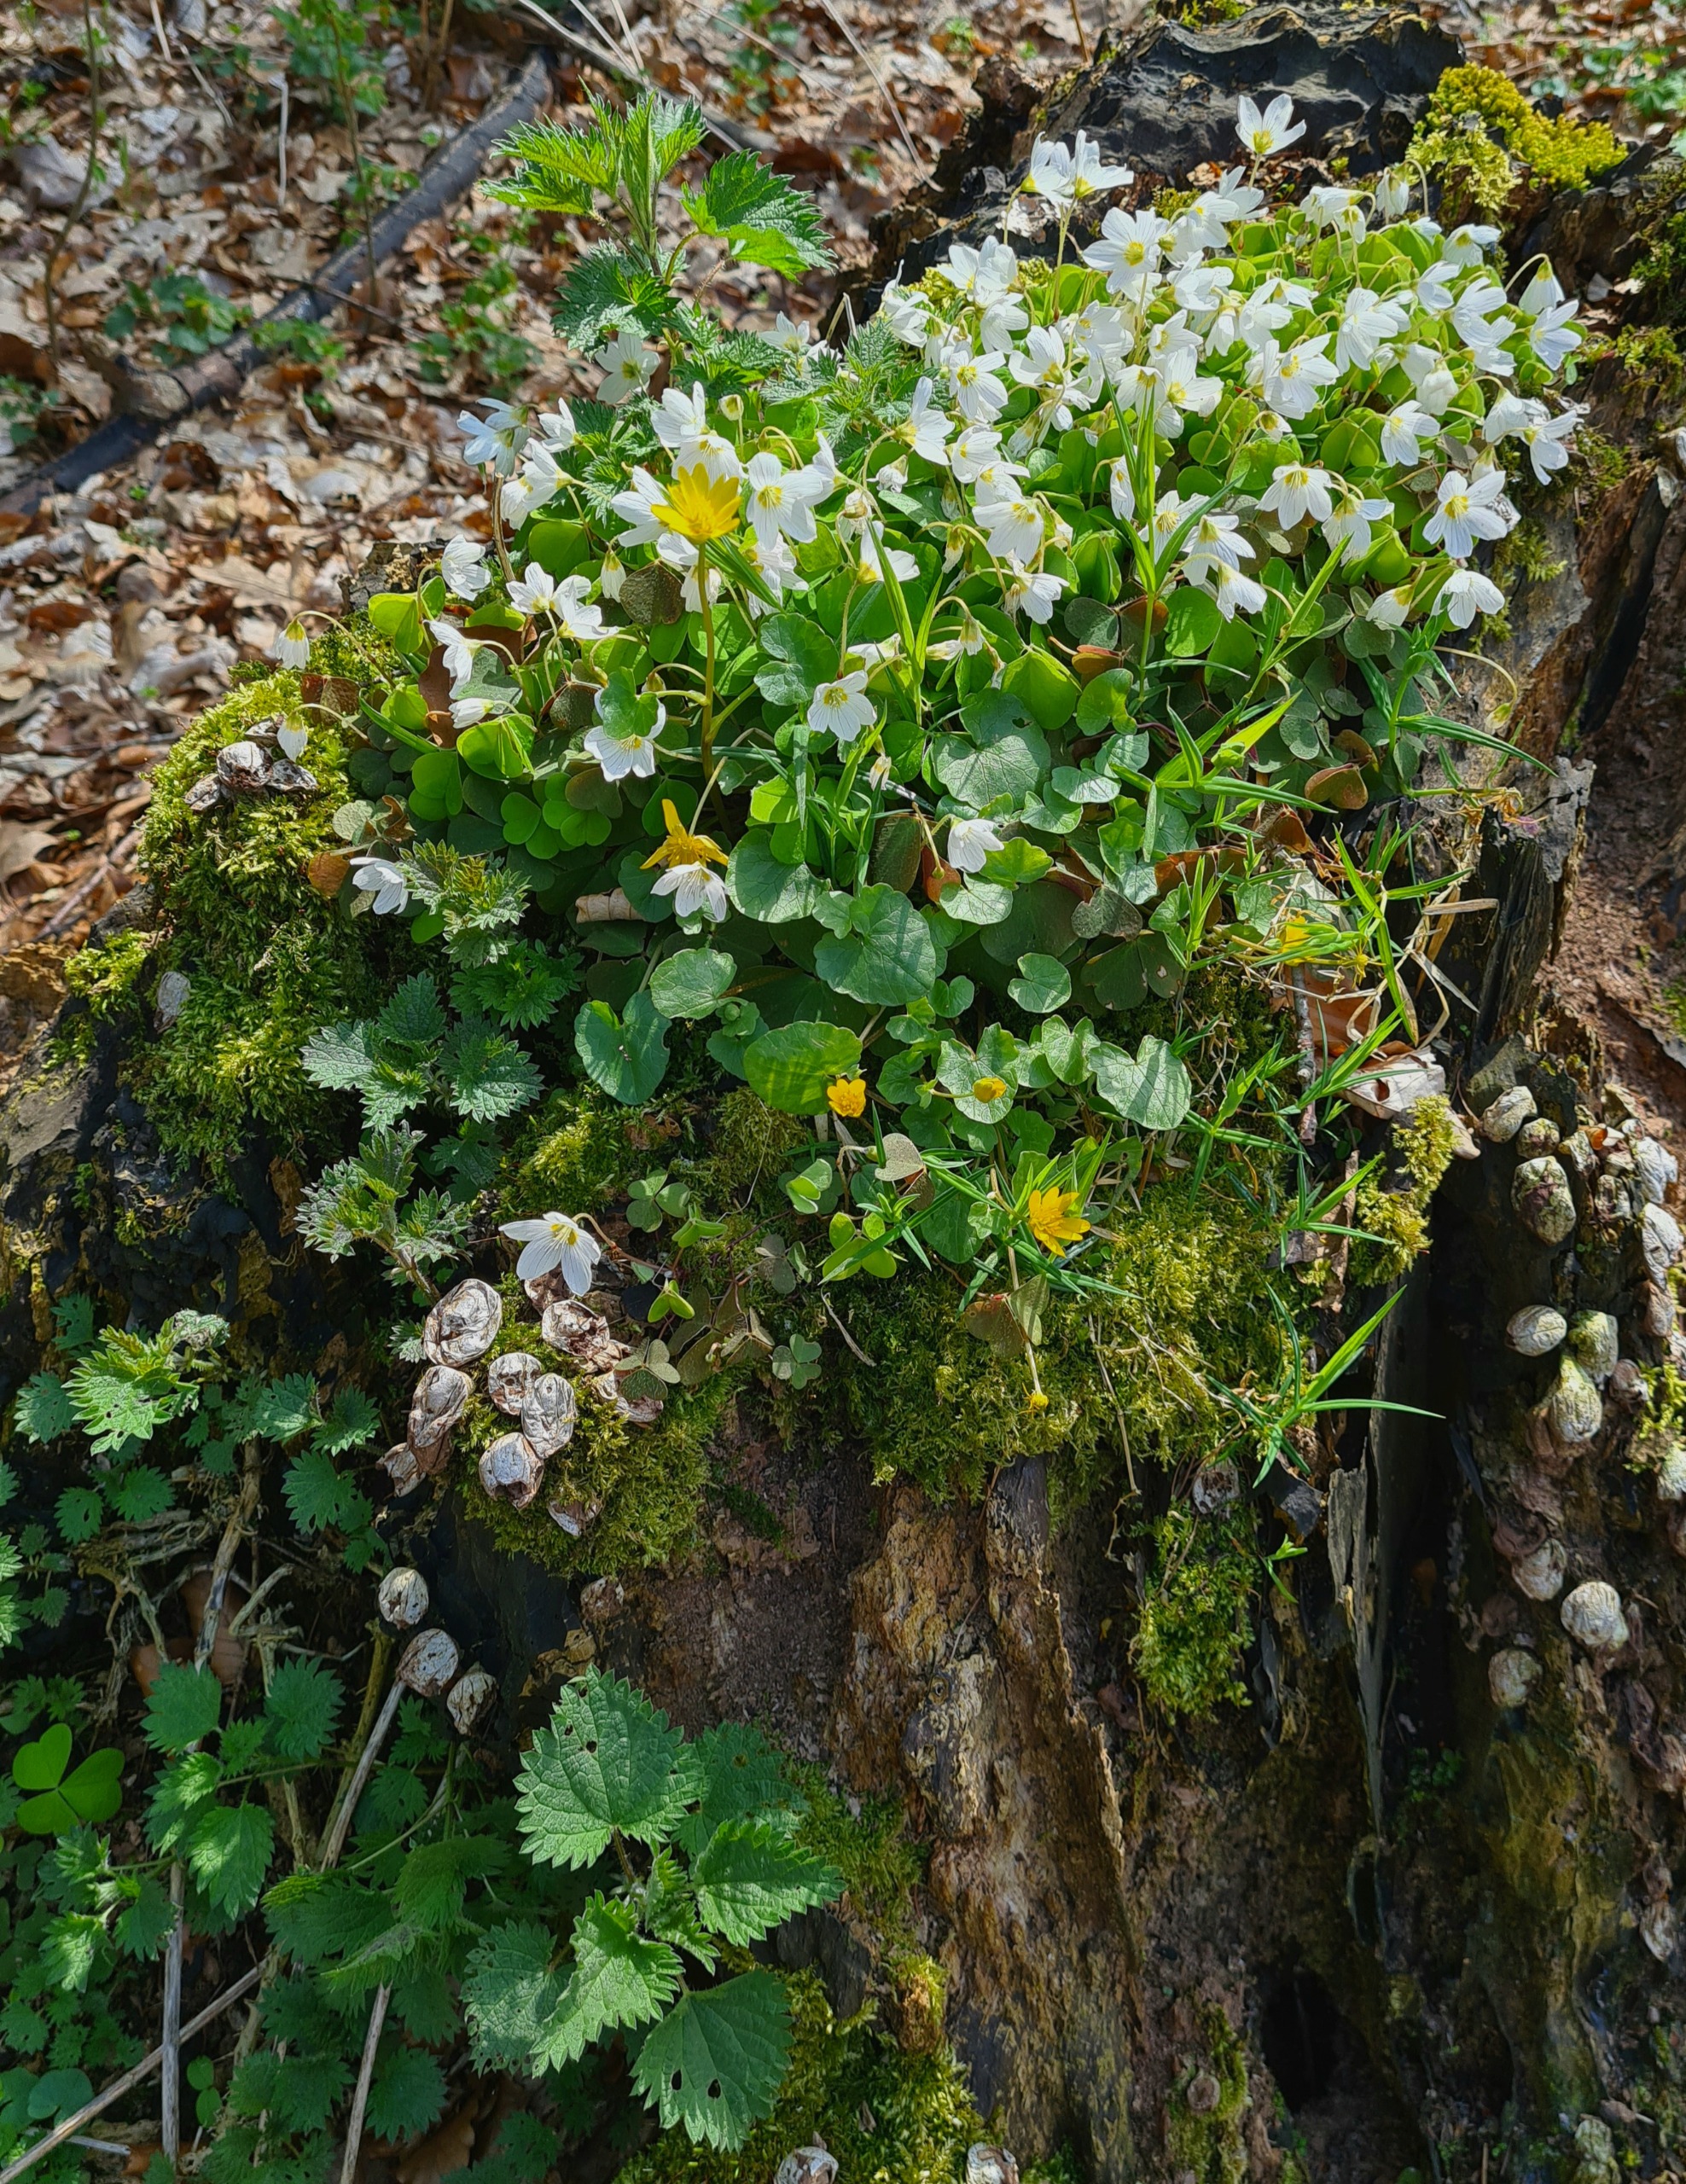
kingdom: Plantae
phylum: Tracheophyta
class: Magnoliopsida
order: Oxalidales
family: Oxalidaceae
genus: Oxalis
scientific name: Oxalis acetosella
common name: Skovsyre
